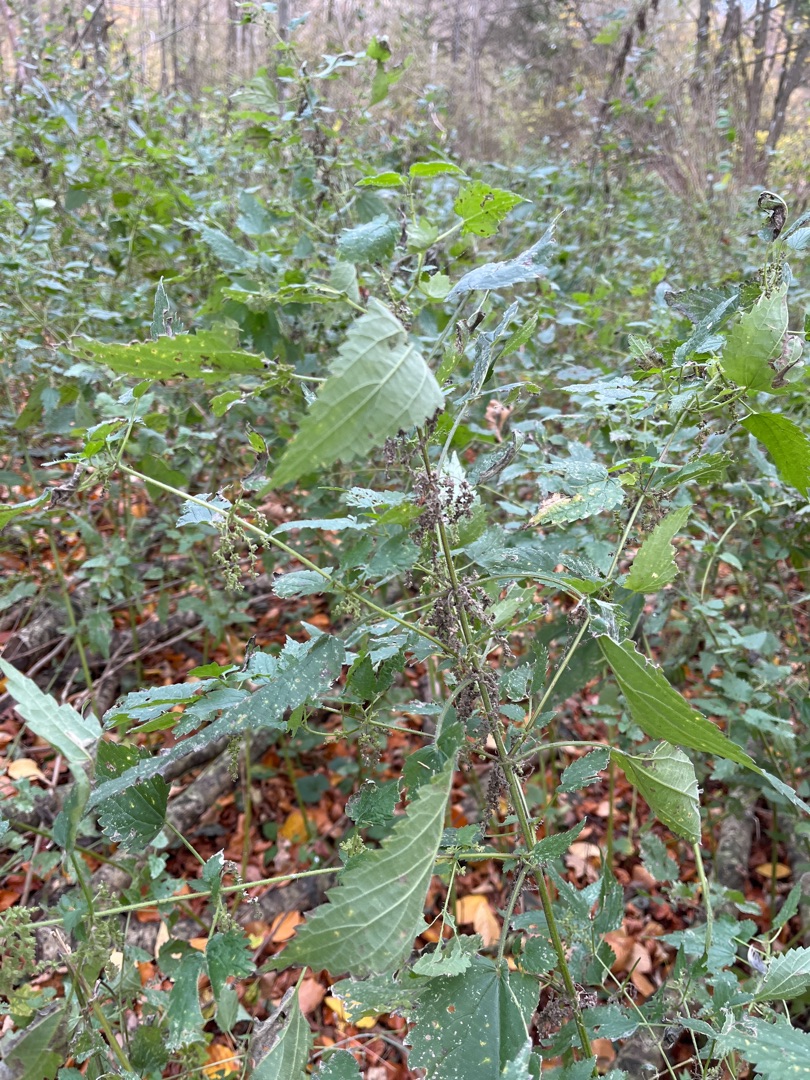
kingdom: Plantae
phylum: Tracheophyta
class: Magnoliopsida
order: Rosales
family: Urticaceae
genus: Urtica
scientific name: Urtica dioica
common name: Stor nælde
